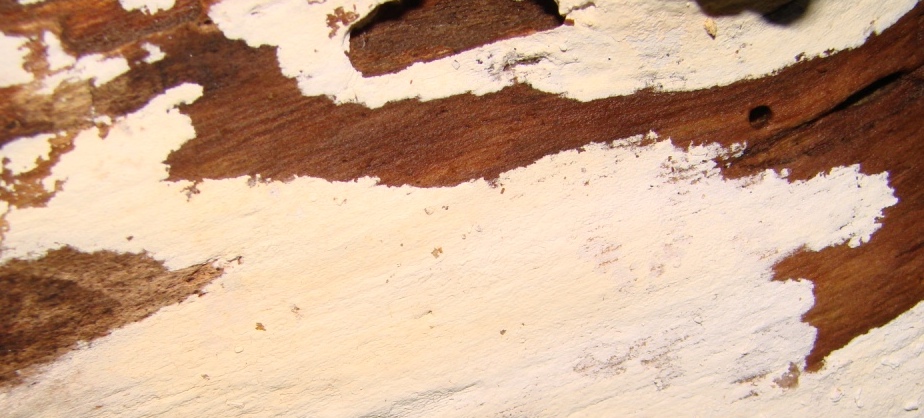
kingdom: Fungi
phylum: Basidiomycota
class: Agaricomycetes
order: Corticiales
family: Corticiaceae
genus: Lyomyces
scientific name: Lyomyces sambuci
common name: almindelig hyldehinde
